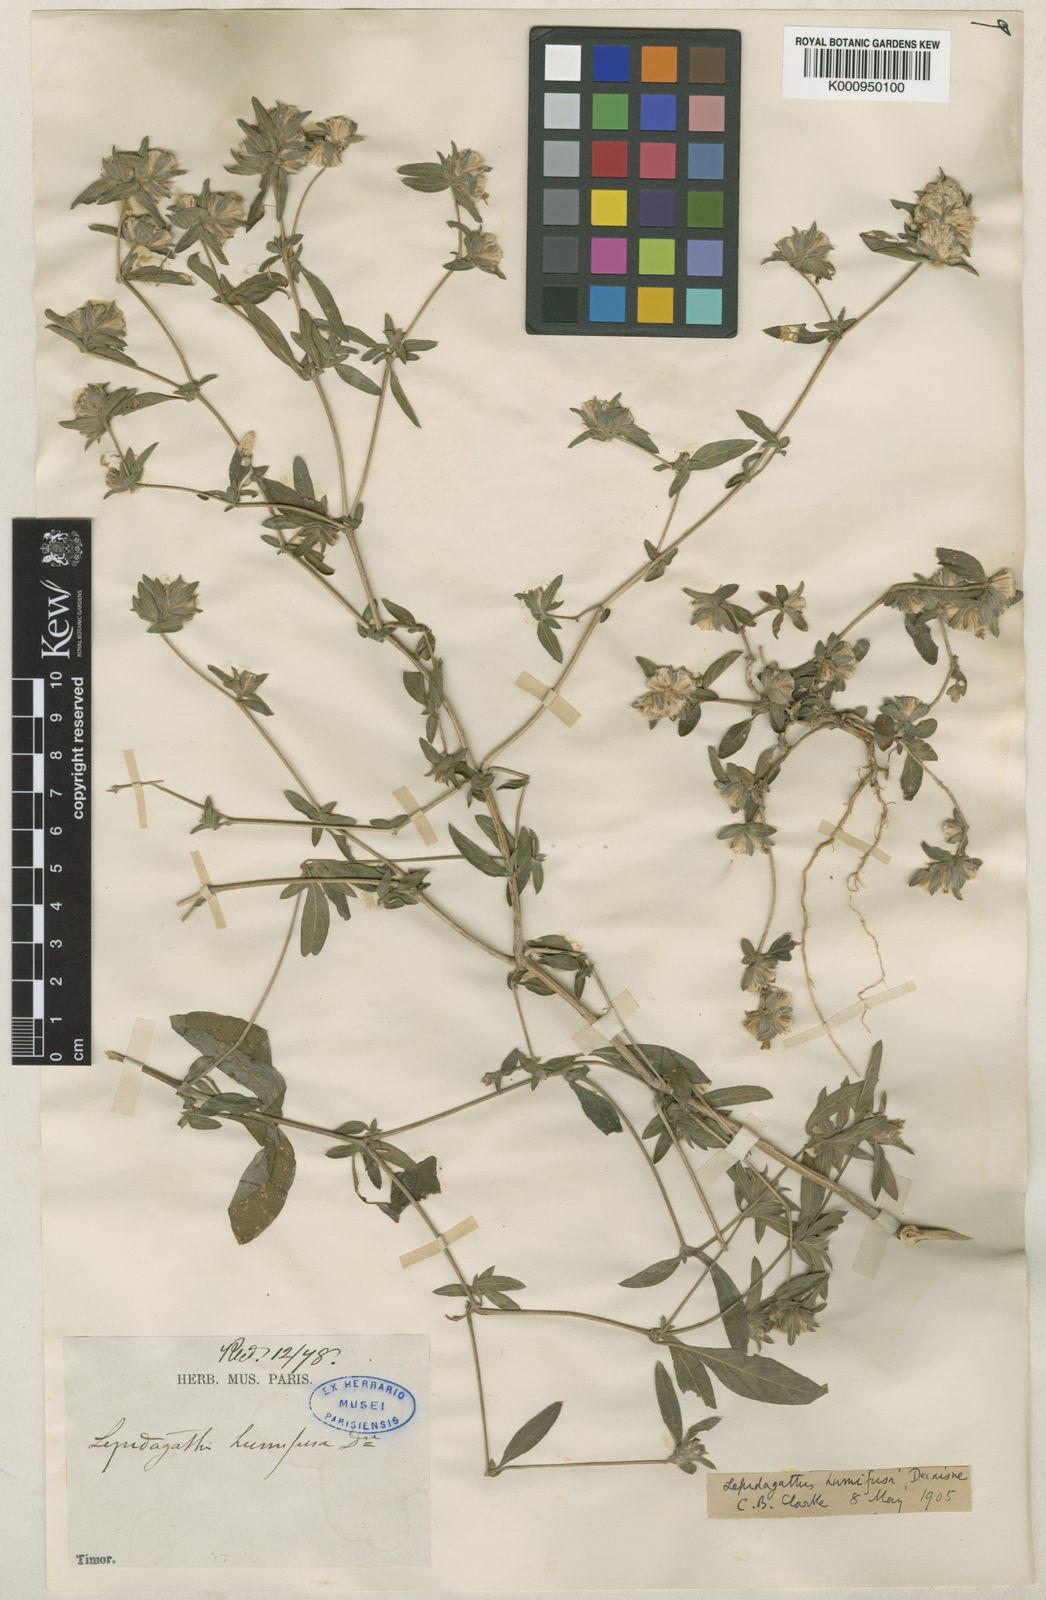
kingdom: Plantae
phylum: Tracheophyta
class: Magnoliopsida
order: Lamiales
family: Acanthaceae
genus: Lepidagathis
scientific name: Lepidagathis humifusa
